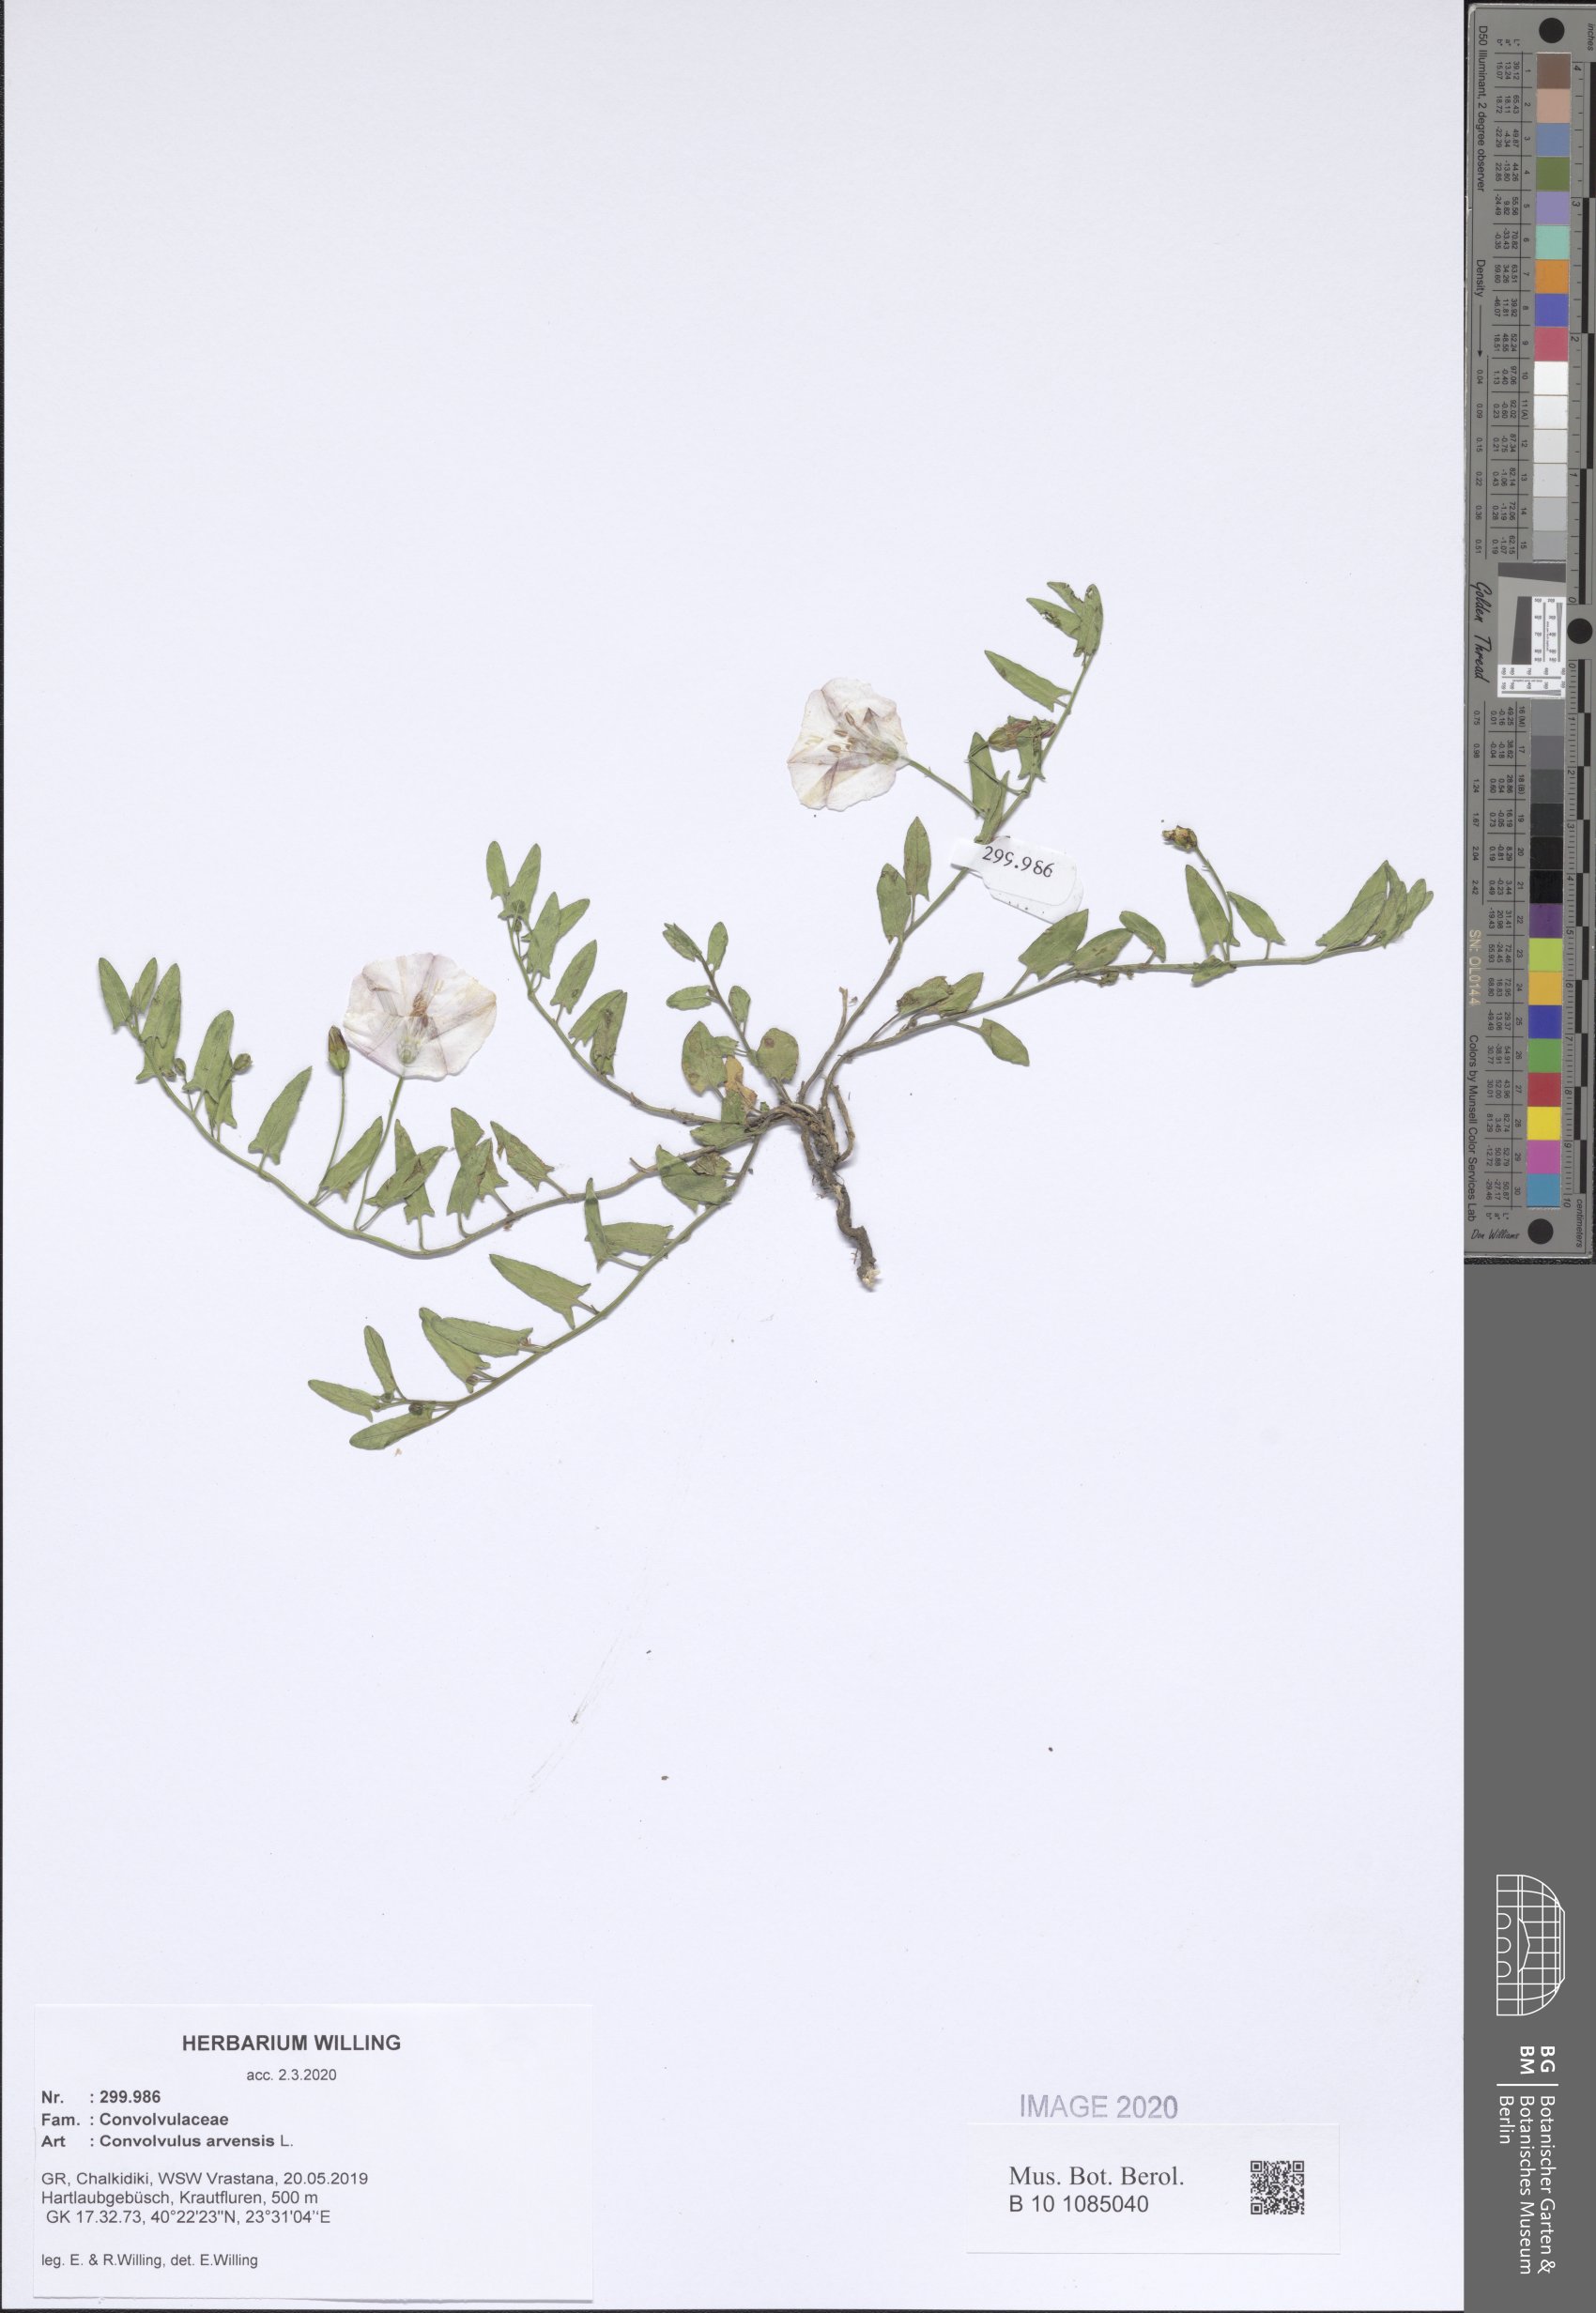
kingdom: Plantae
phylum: Tracheophyta
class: Magnoliopsida
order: Solanales
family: Convolvulaceae
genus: Convolvulus
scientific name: Convolvulus arvensis
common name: Field bindweed
